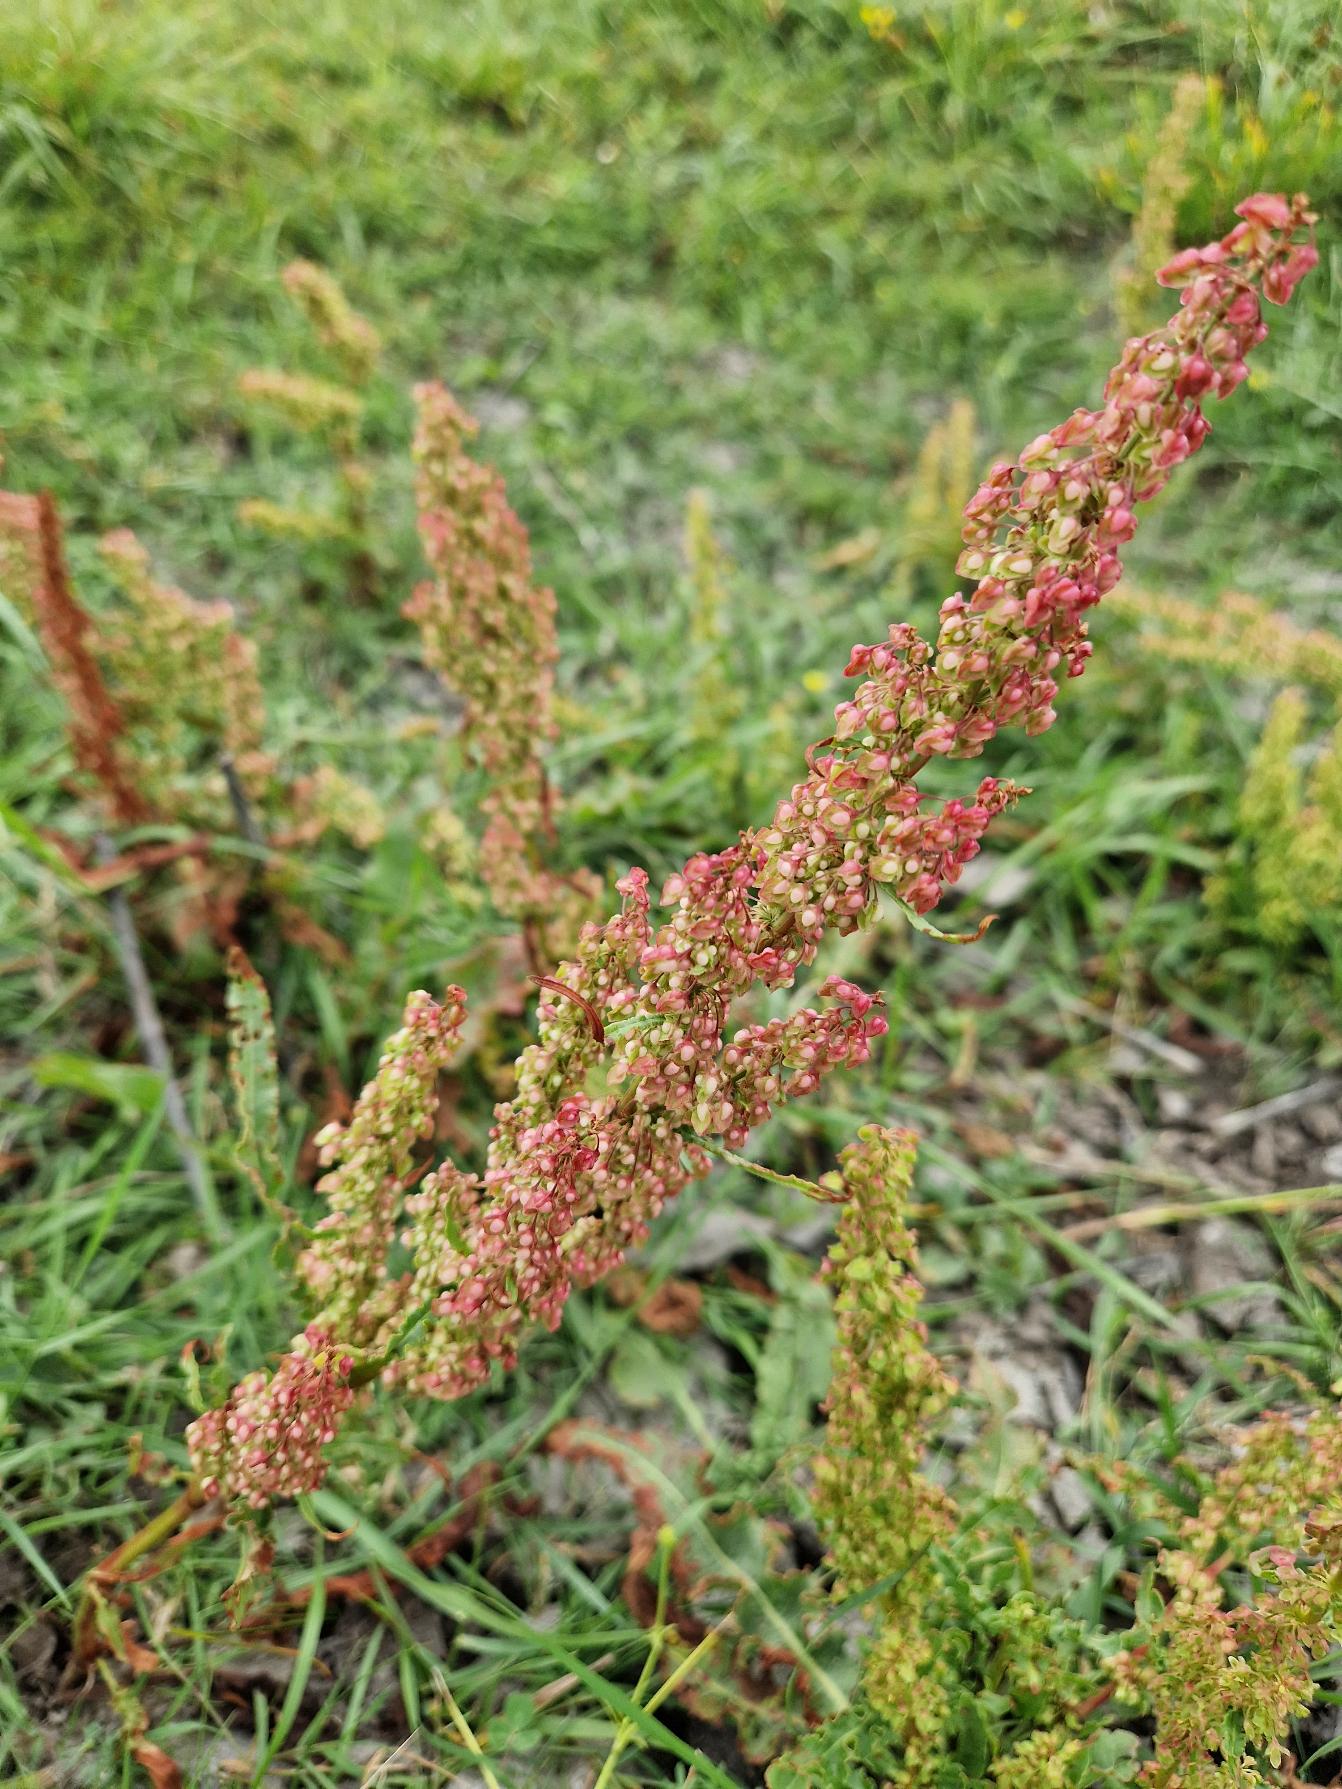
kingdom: Plantae
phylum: Tracheophyta
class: Magnoliopsida
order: Caryophyllales
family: Polygonaceae
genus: Rumex
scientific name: Rumex crispus
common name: Kruset skræppe
